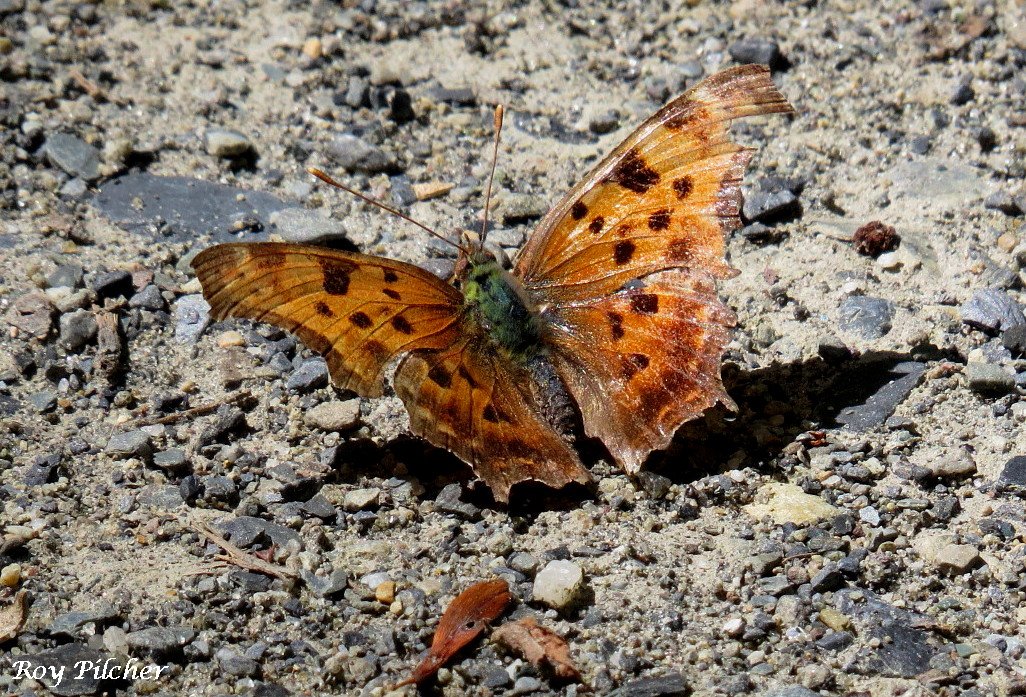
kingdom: Animalia
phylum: Arthropoda
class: Insecta
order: Lepidoptera
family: Nymphalidae
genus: Polygonia
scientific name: Polygonia comma
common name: Eastern Comma
